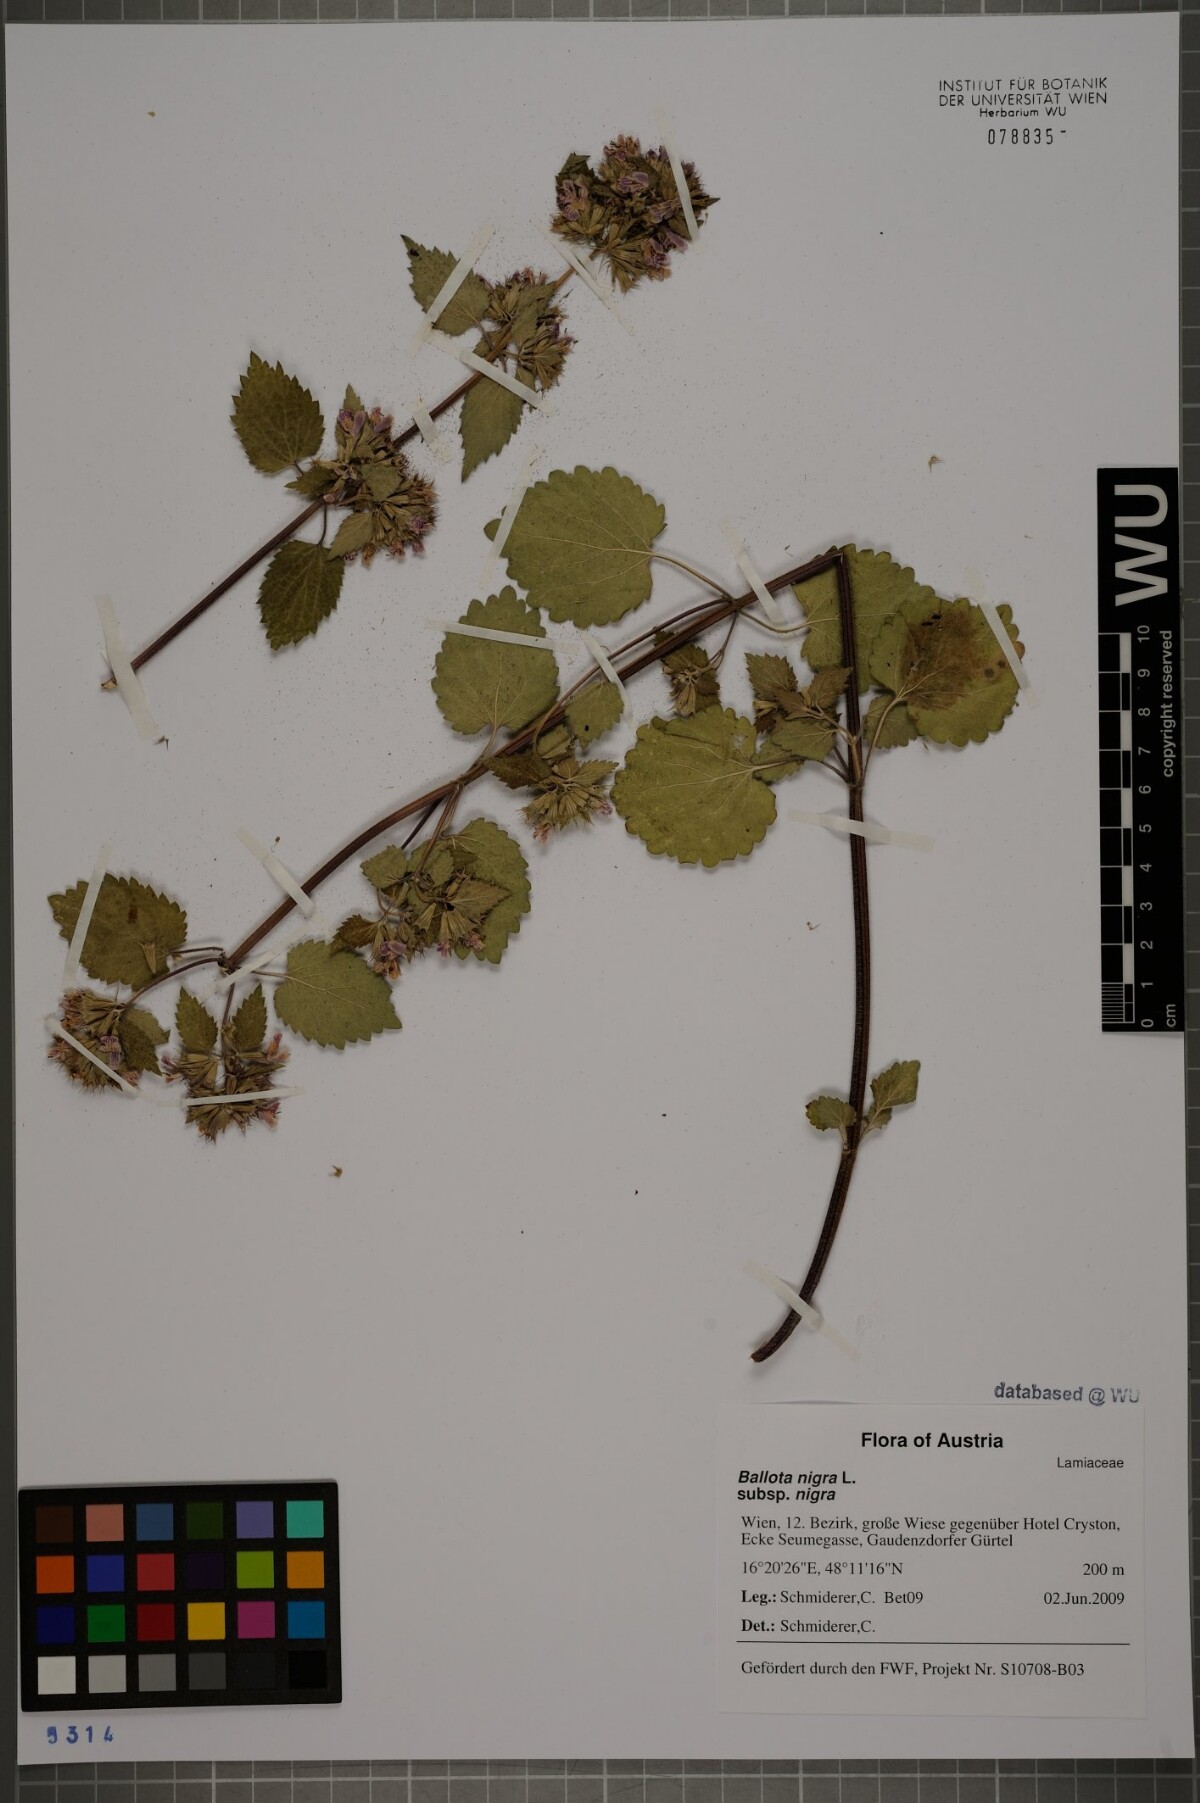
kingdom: Plantae
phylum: Tracheophyta
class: Magnoliopsida
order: Lamiales
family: Lamiaceae
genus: Ballota
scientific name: Ballota nigra
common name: Black horehound
